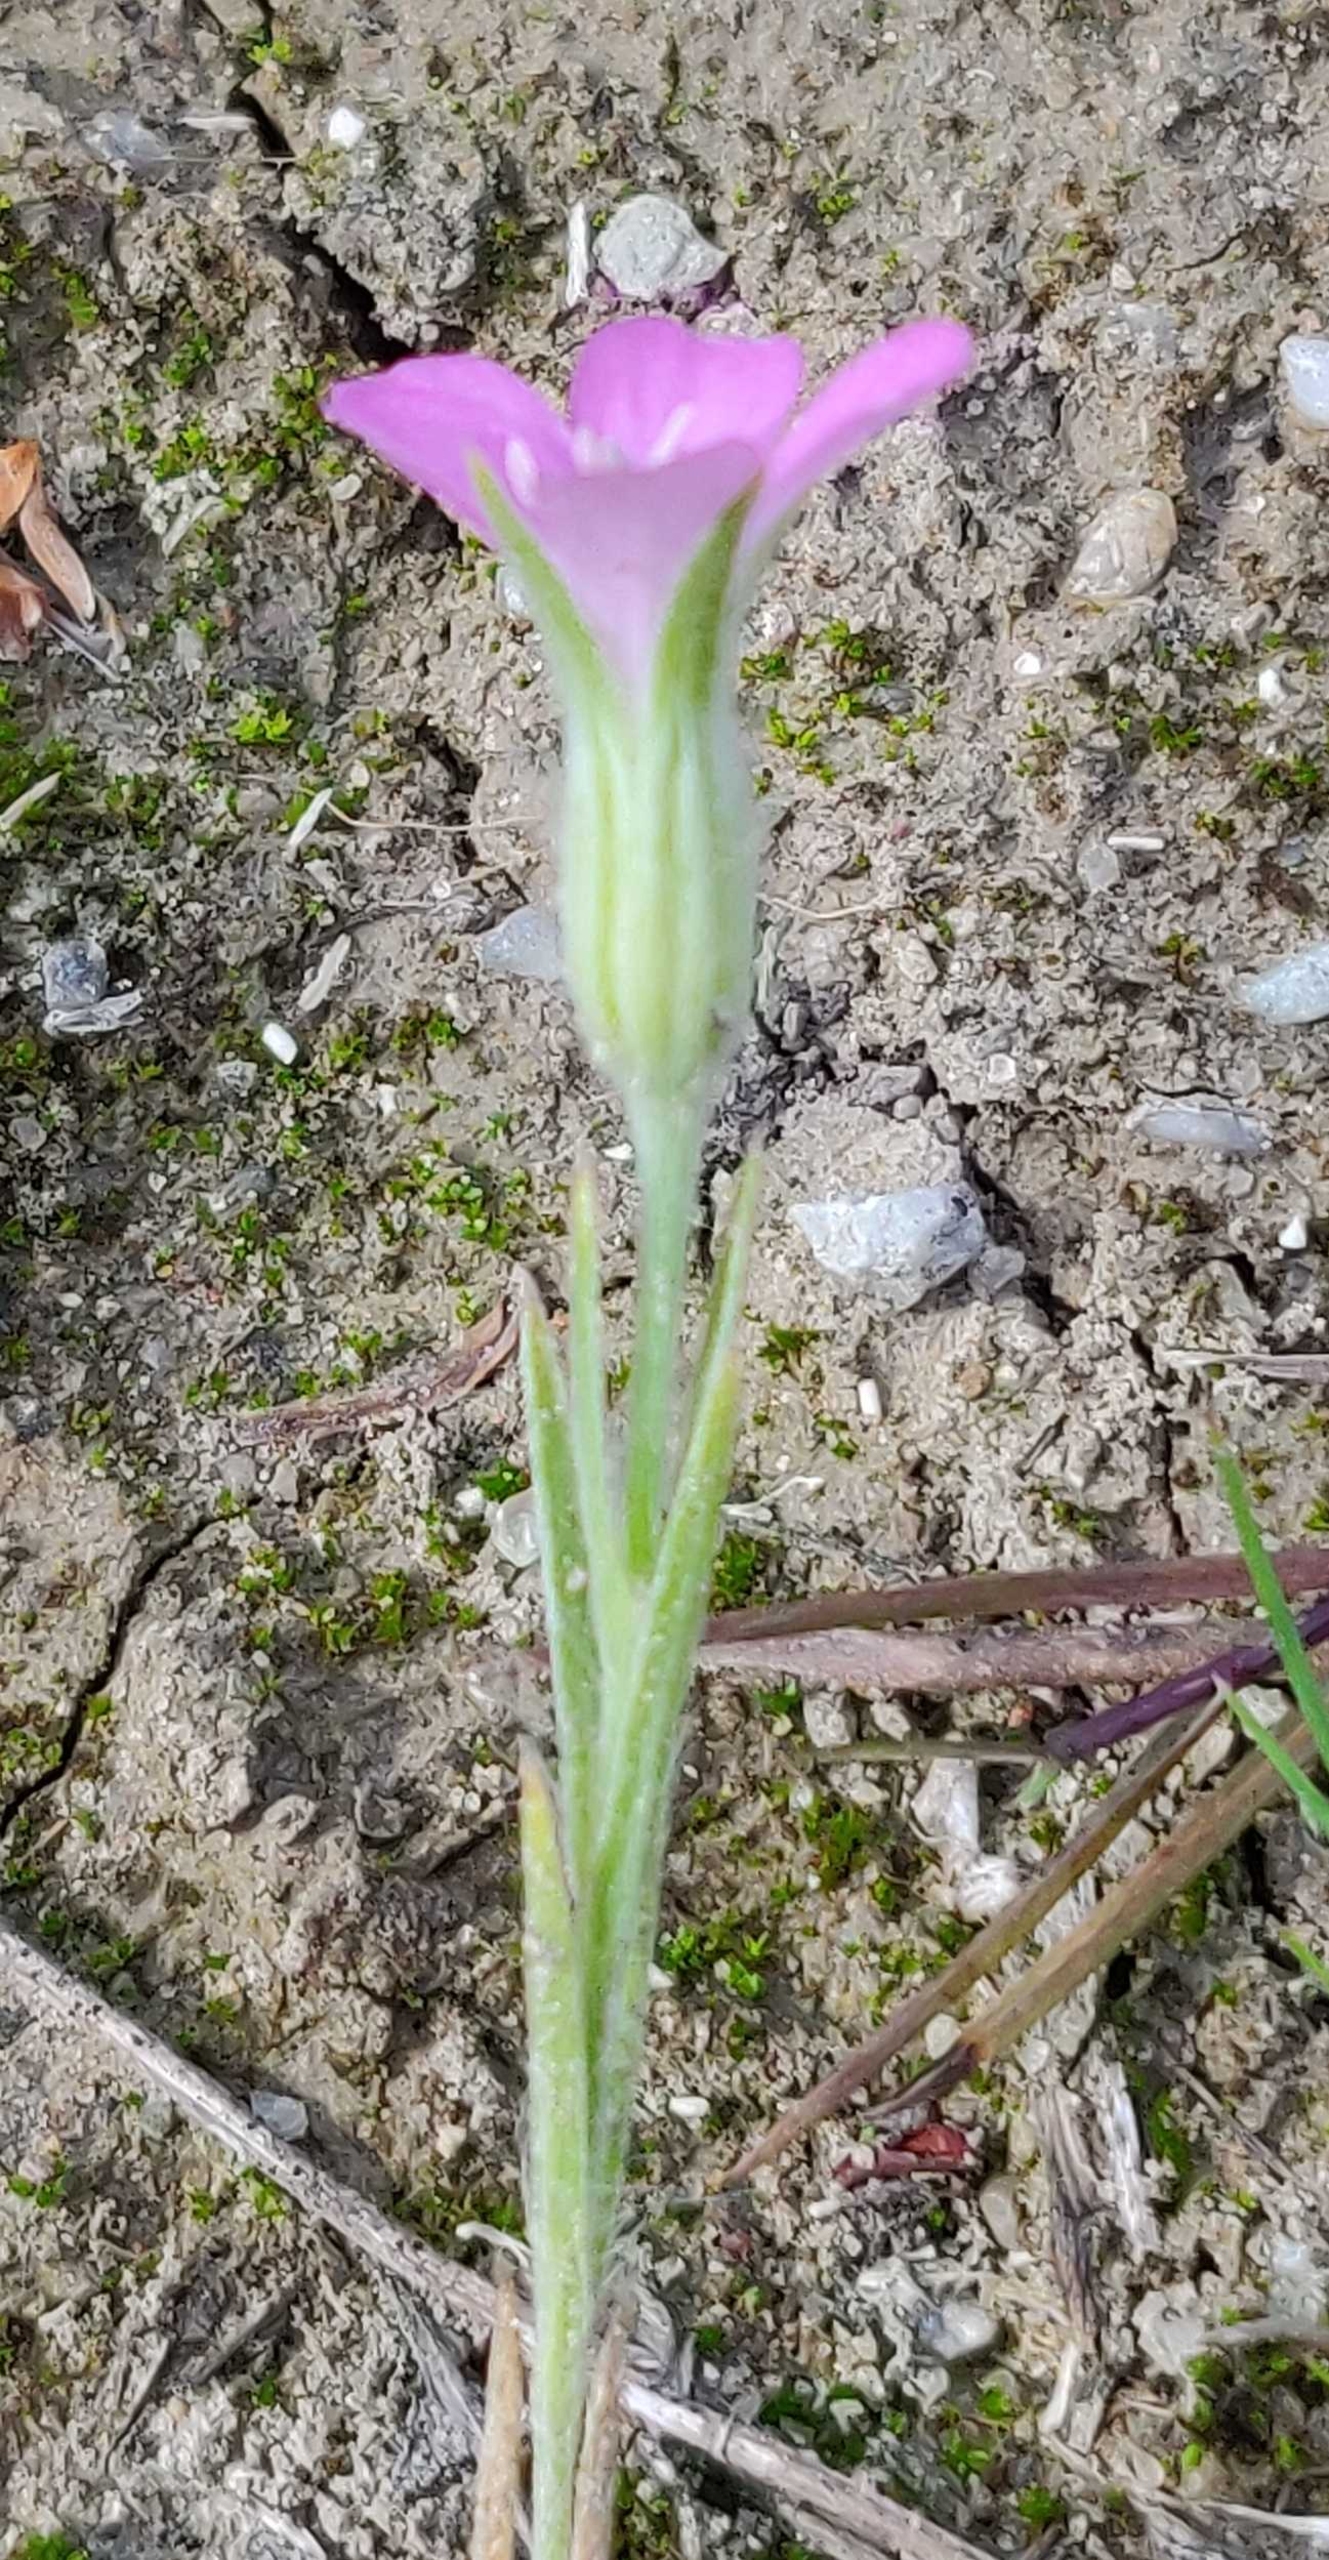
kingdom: Plantae
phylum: Tracheophyta
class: Magnoliopsida
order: Caryophyllales
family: Caryophyllaceae
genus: Agrostemma
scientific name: Agrostemma githago
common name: Klinte
